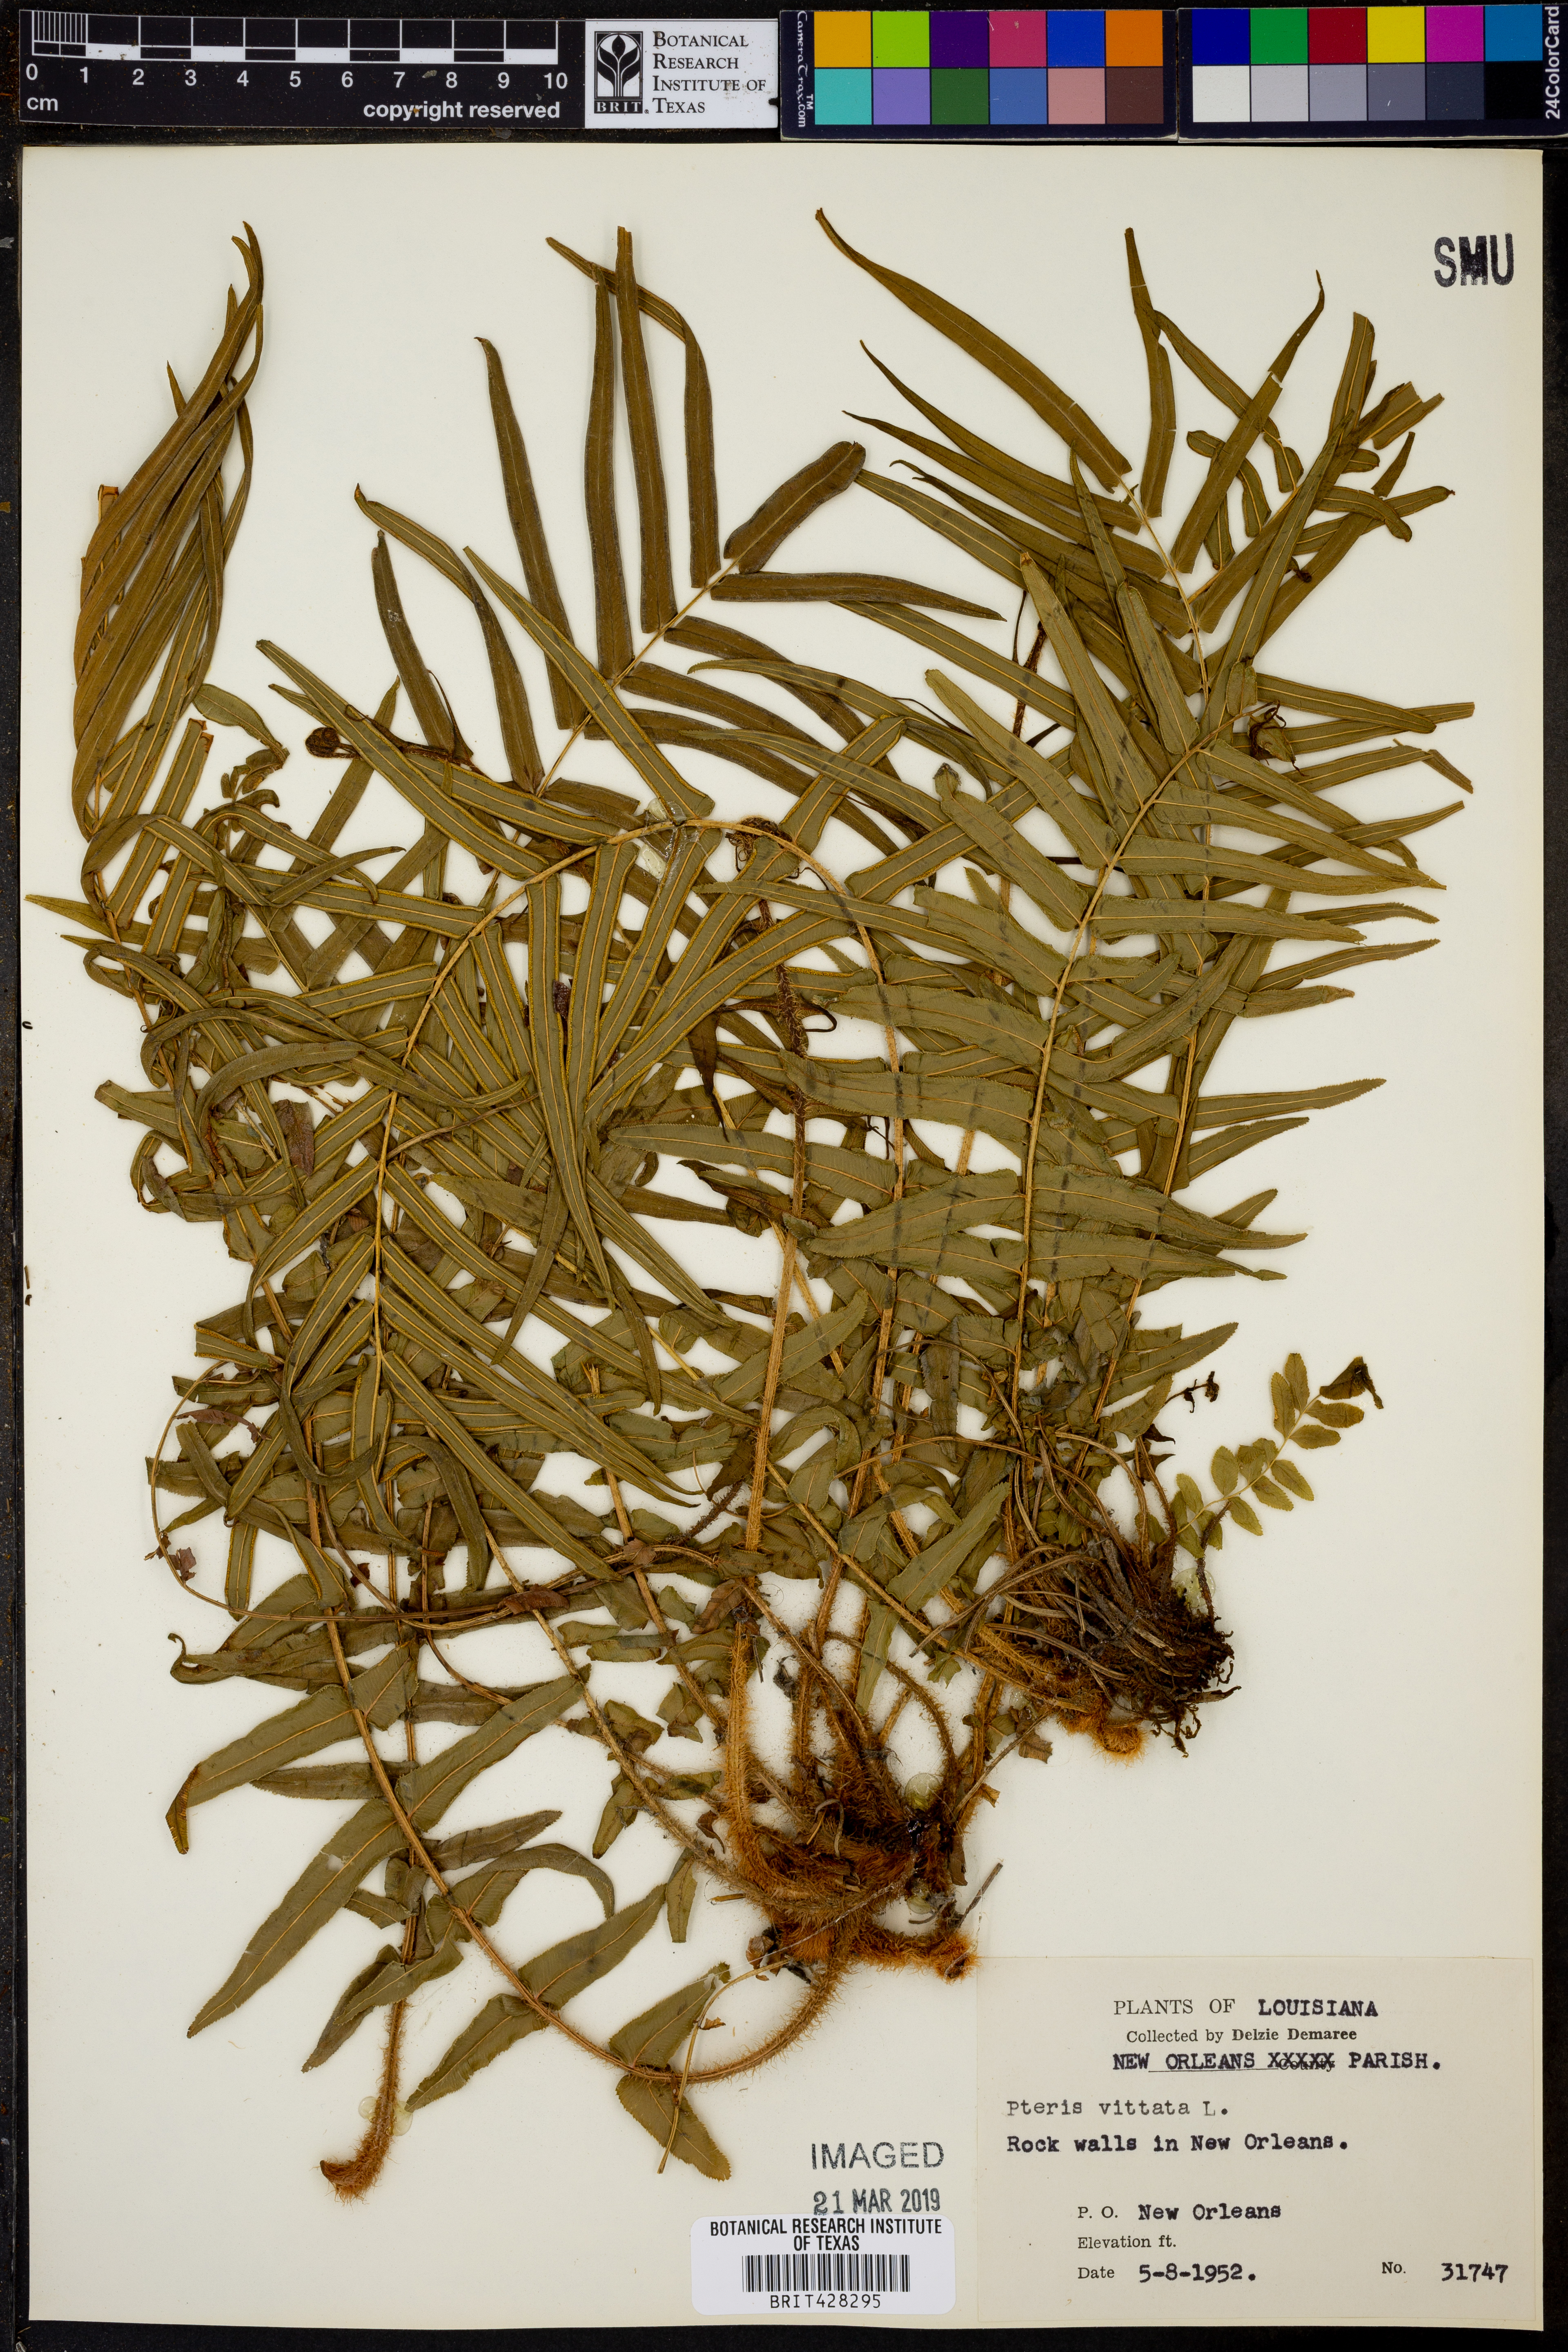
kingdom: Plantae
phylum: Tracheophyta
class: Polypodiopsida
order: Polypodiales
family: Pteridaceae
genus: Pteris
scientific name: Pteris vittata
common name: Ladder brake
